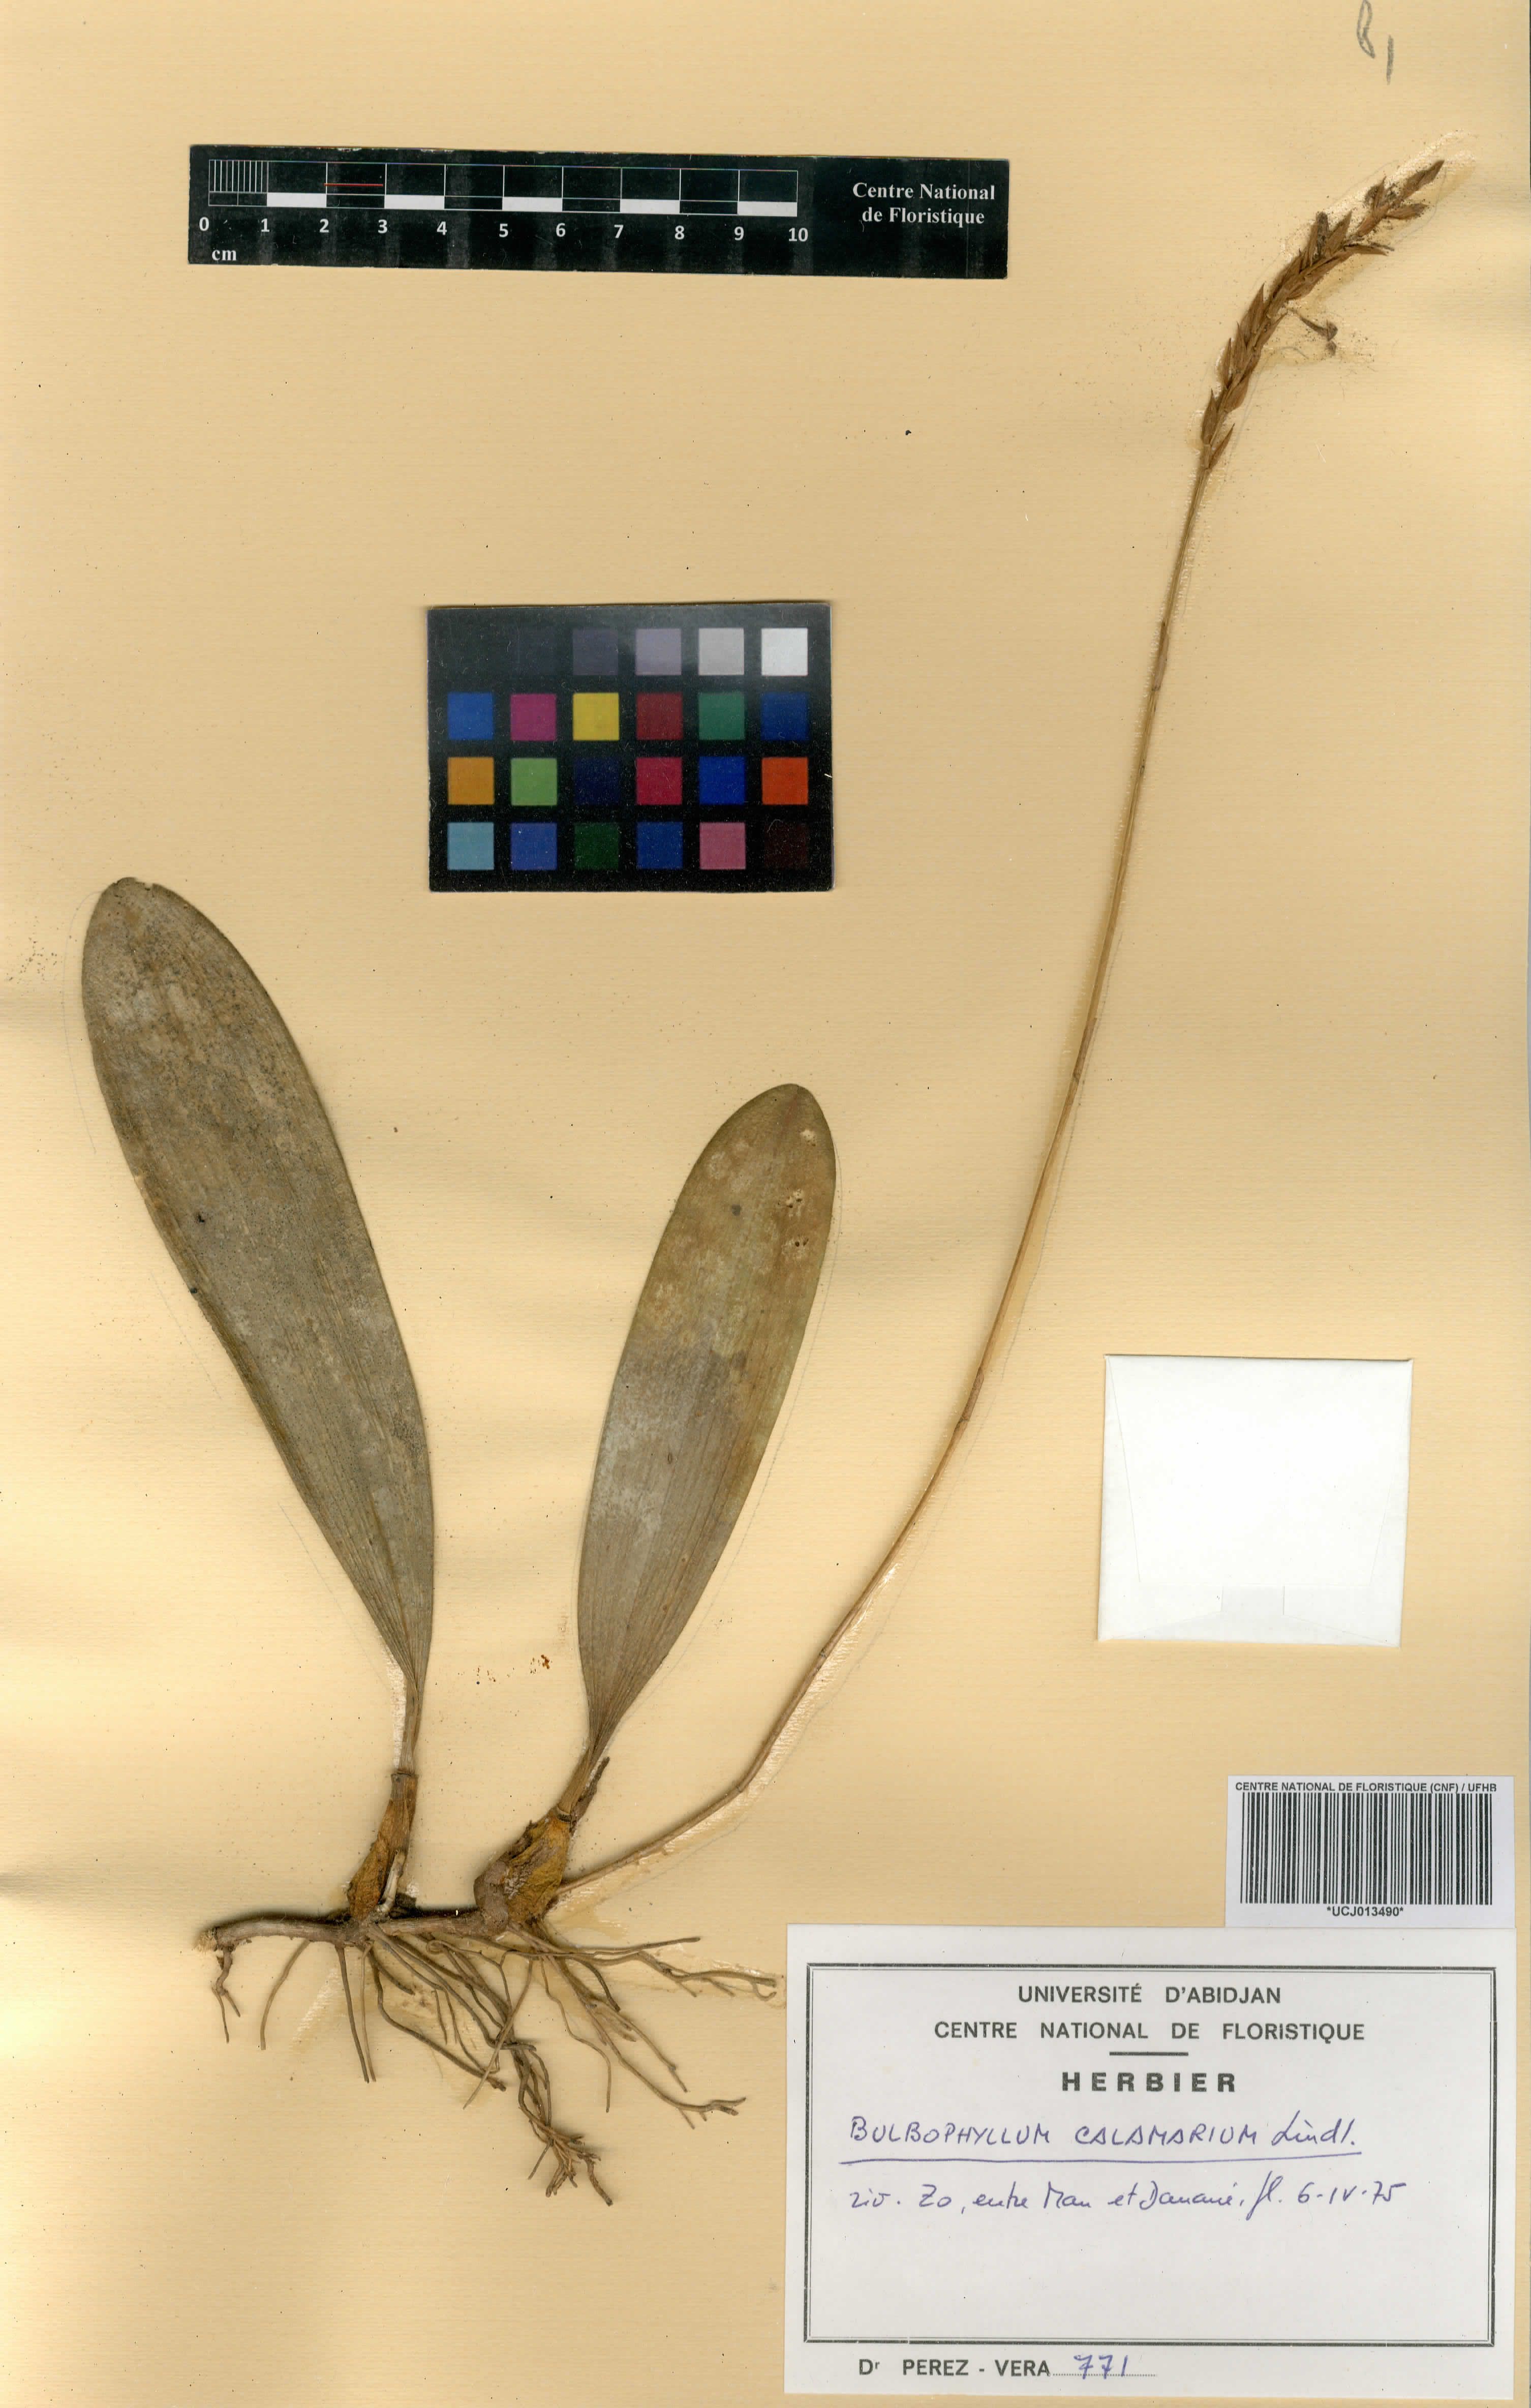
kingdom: Plantae
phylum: Tracheophyta
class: Liliopsida
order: Asparagales
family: Orchidaceae
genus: Bulbophyllum
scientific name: Bulbophyllum saltatorium
